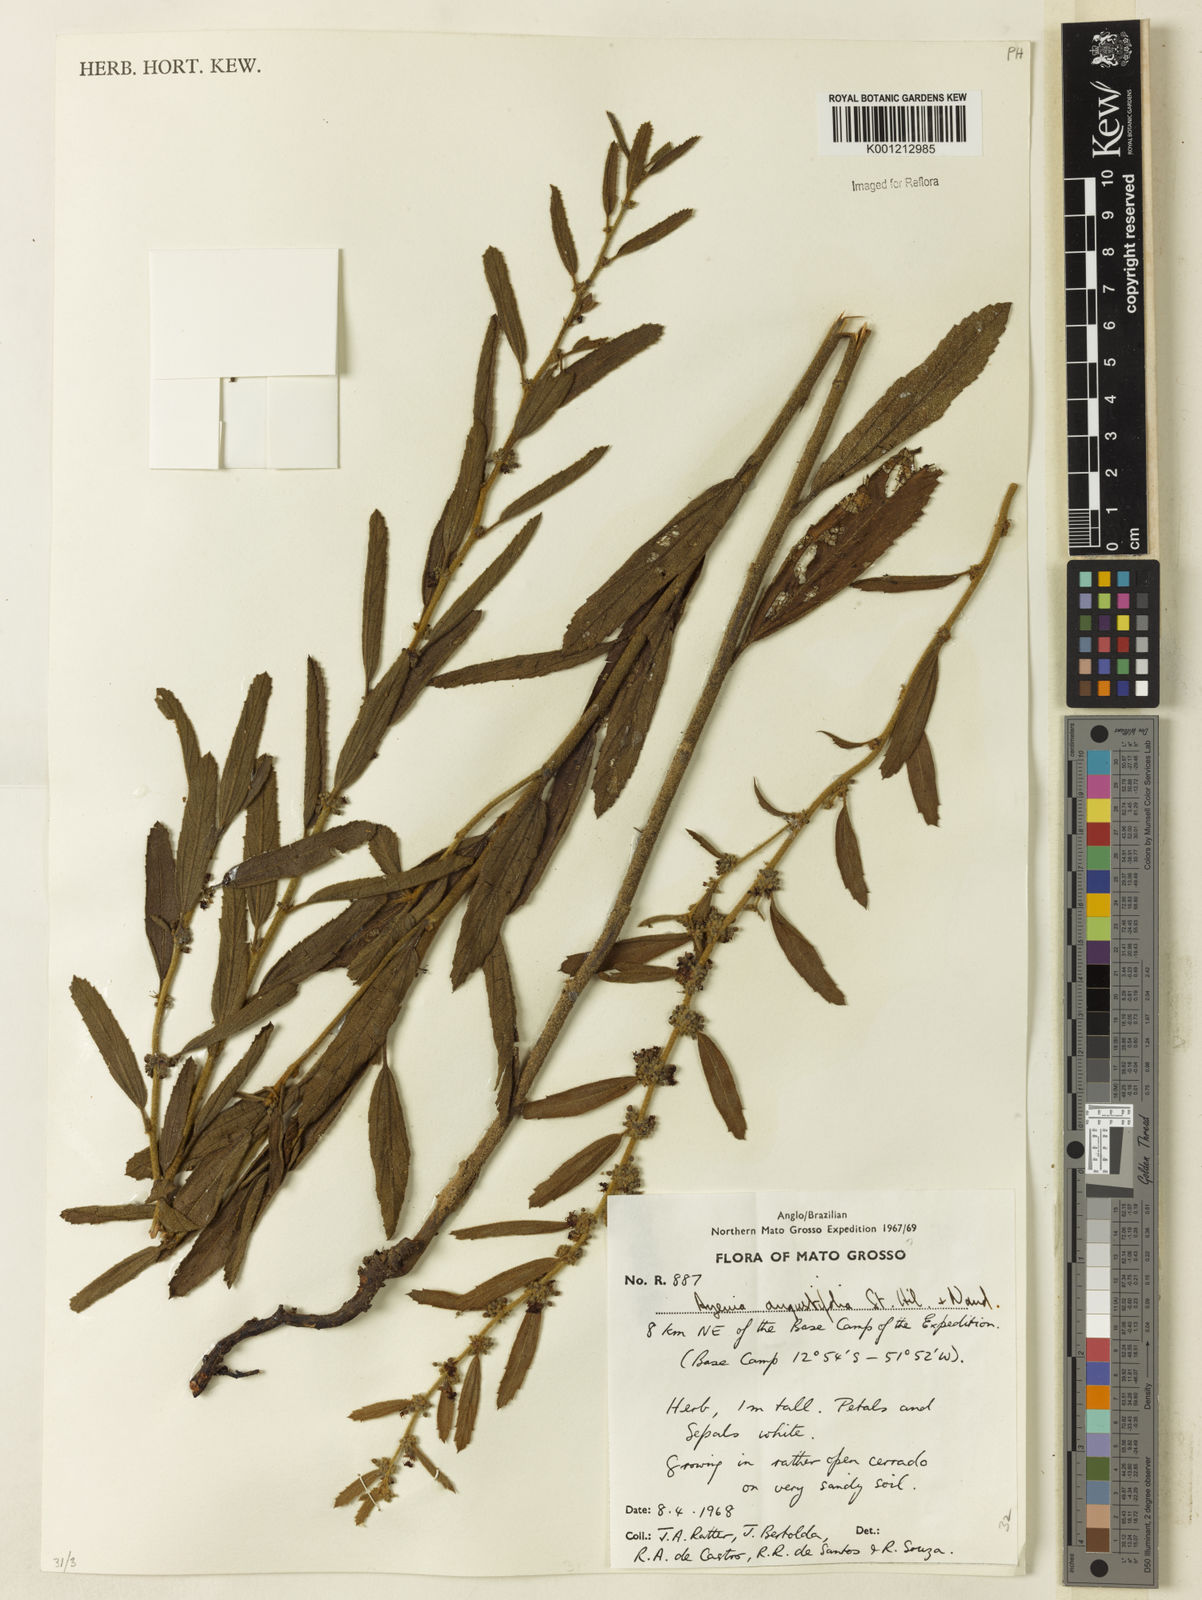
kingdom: Plantae
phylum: Tracheophyta
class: Magnoliopsida
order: Malvales
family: Malvaceae
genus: Ayenia
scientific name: Ayenia angustifolia
